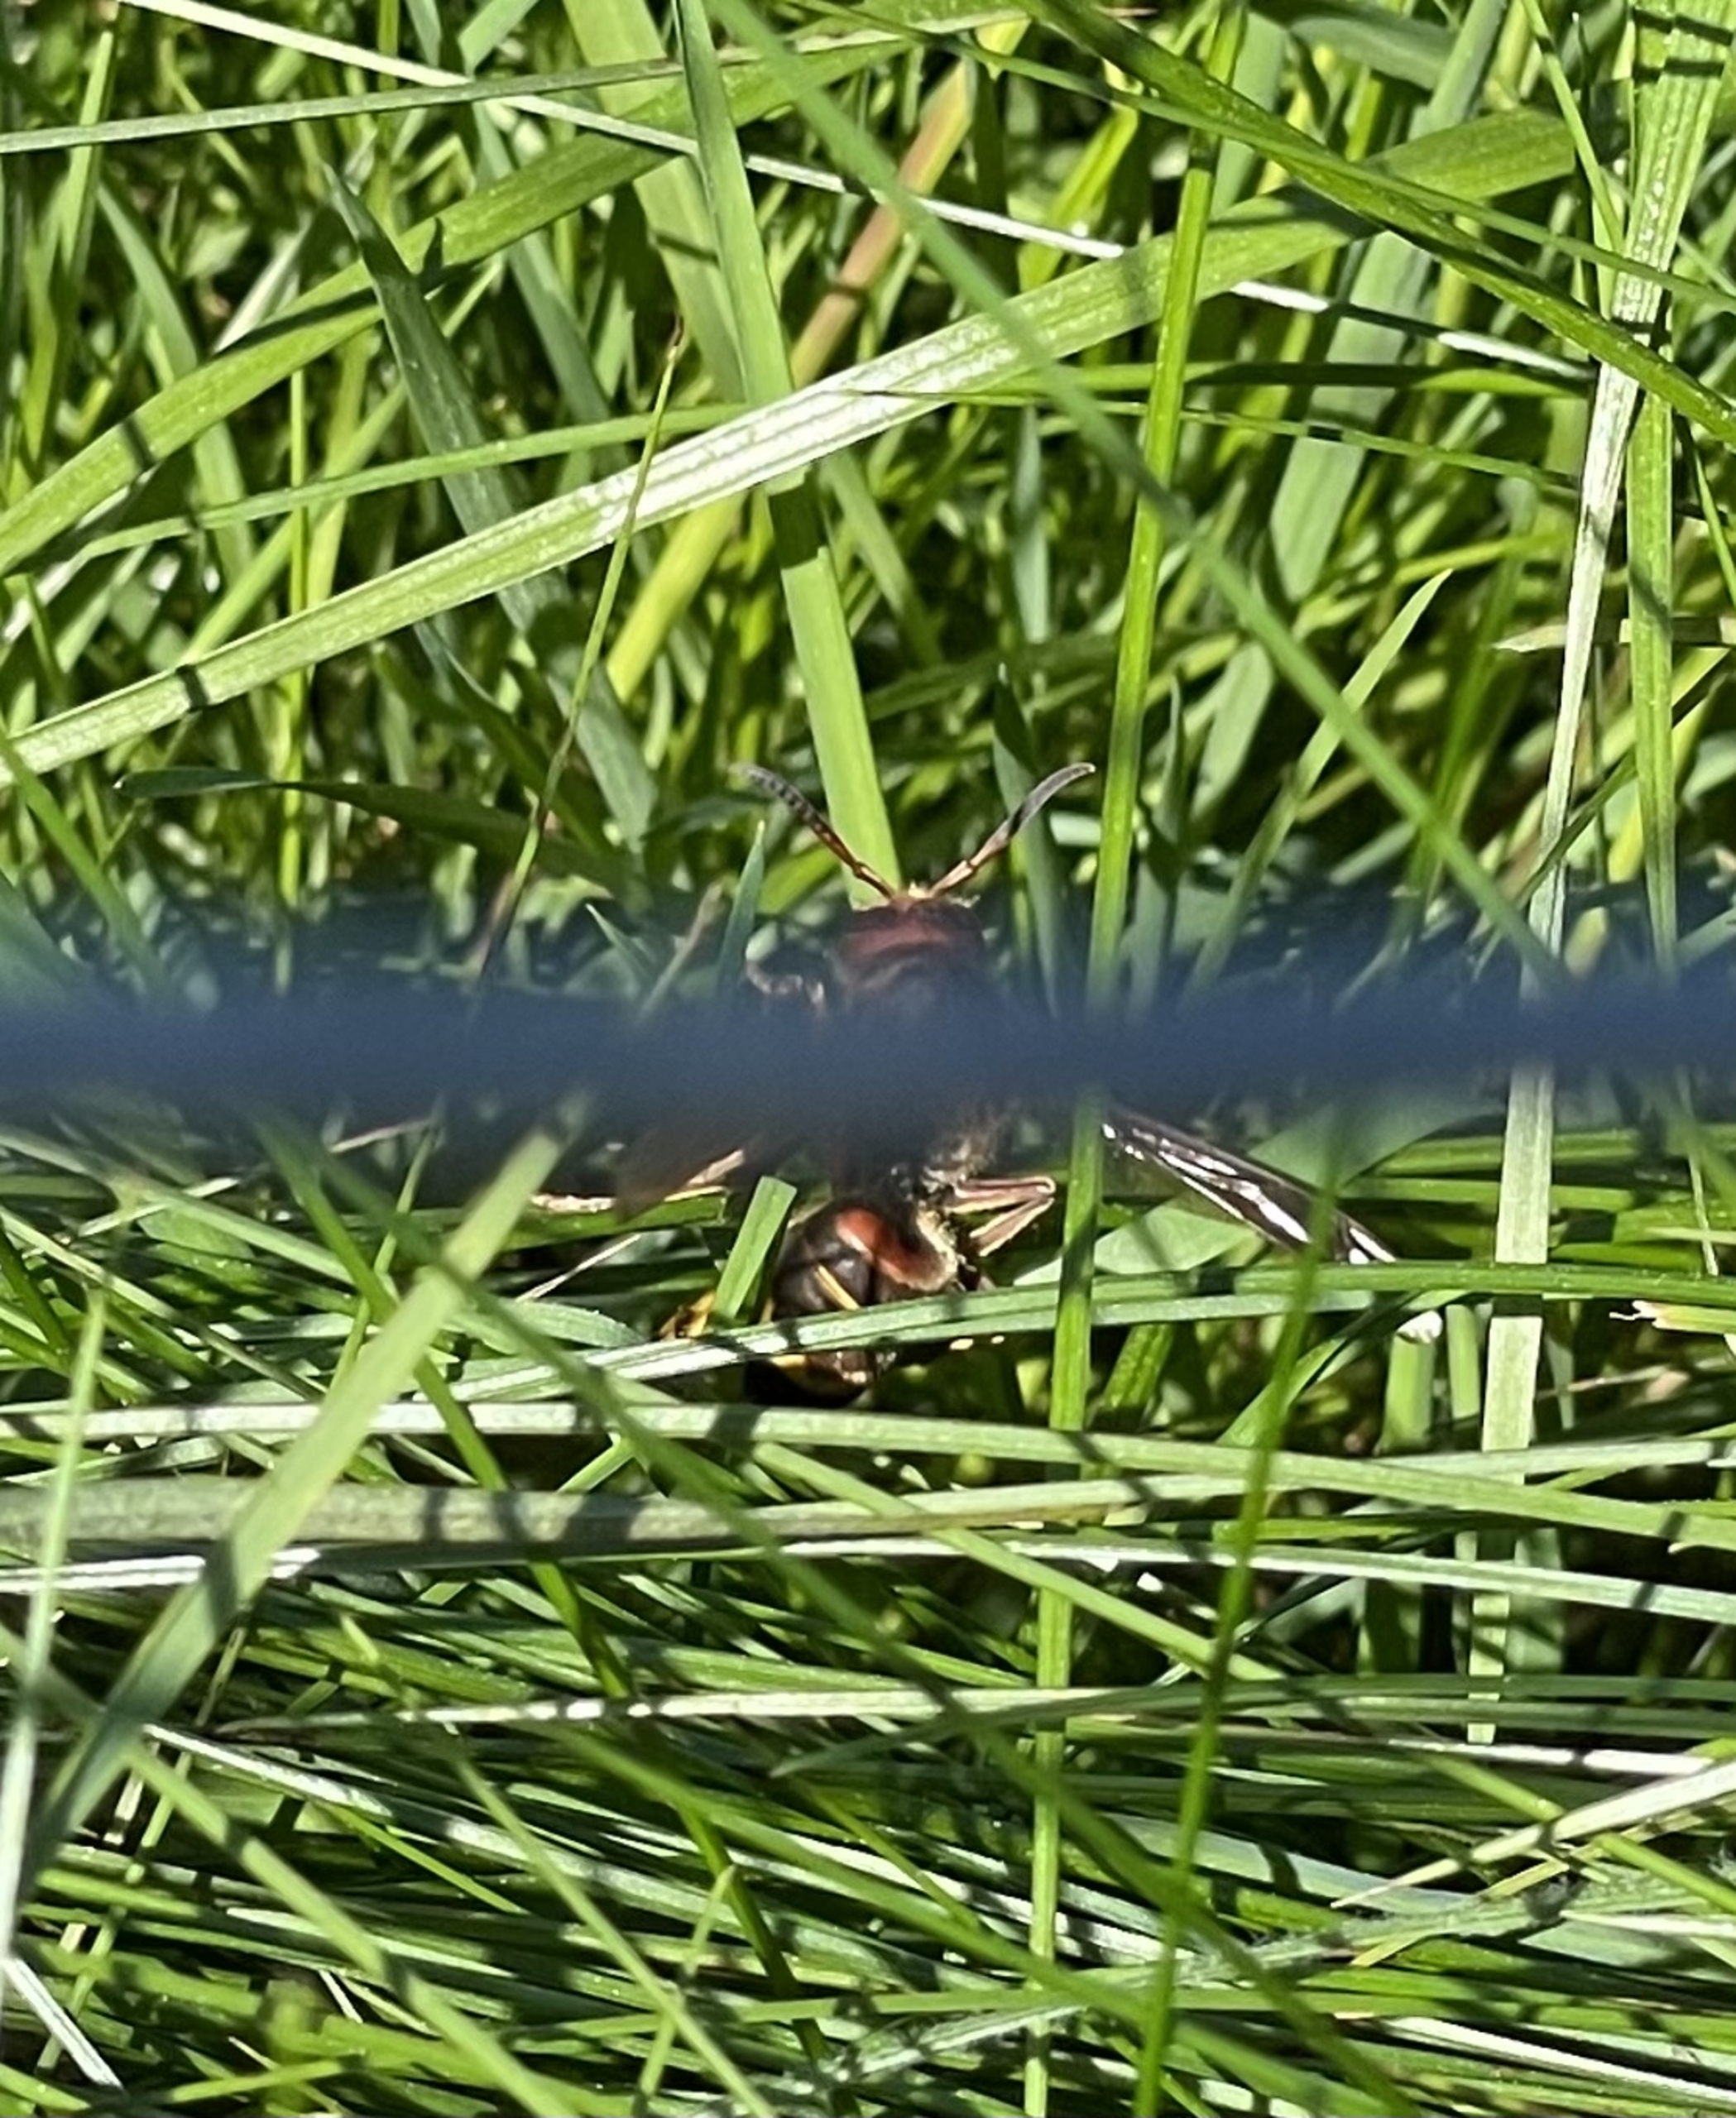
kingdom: Animalia
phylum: Arthropoda
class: Insecta
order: Hymenoptera
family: Vespidae
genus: Vespa
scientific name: Vespa crabro
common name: Stor gedehams
